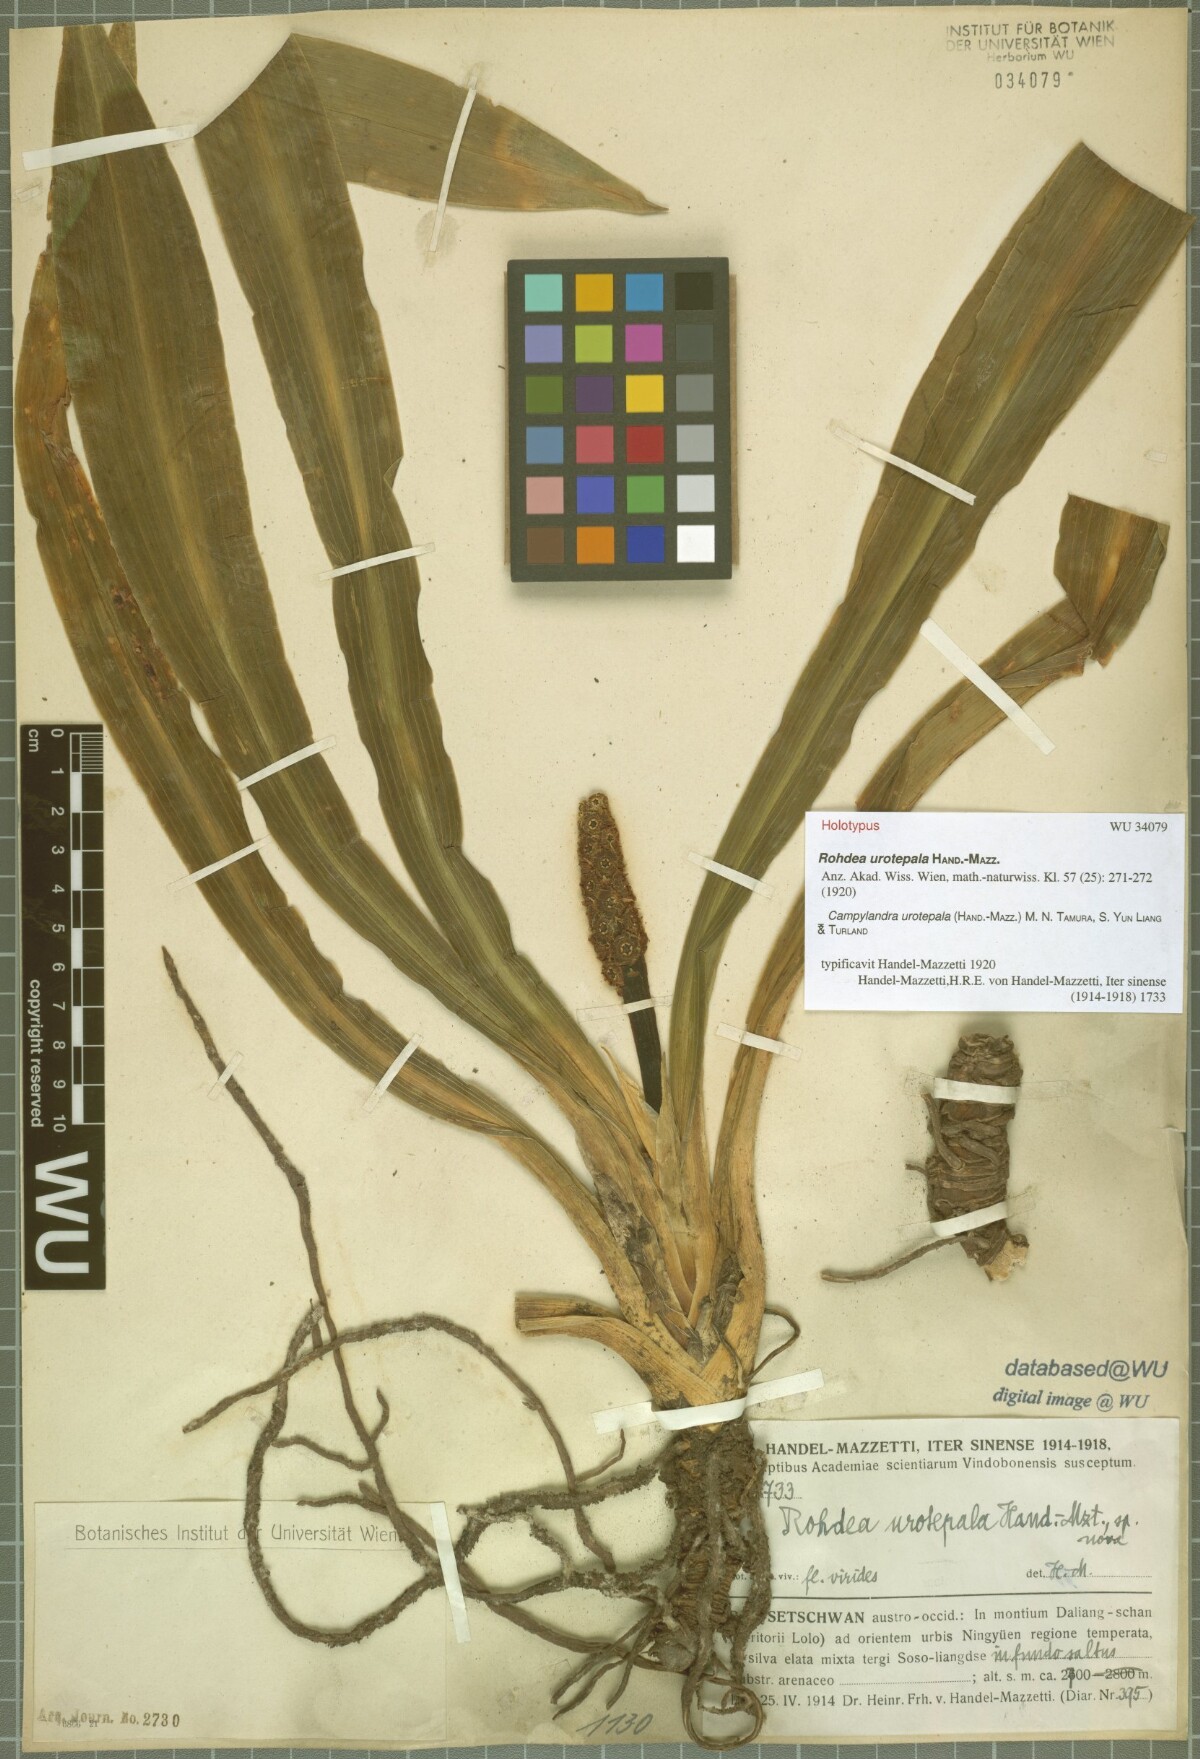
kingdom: Plantae
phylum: Tracheophyta
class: Liliopsida
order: Asparagales
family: Asparagaceae
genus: Rohdea
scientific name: Rohdea urotepala
